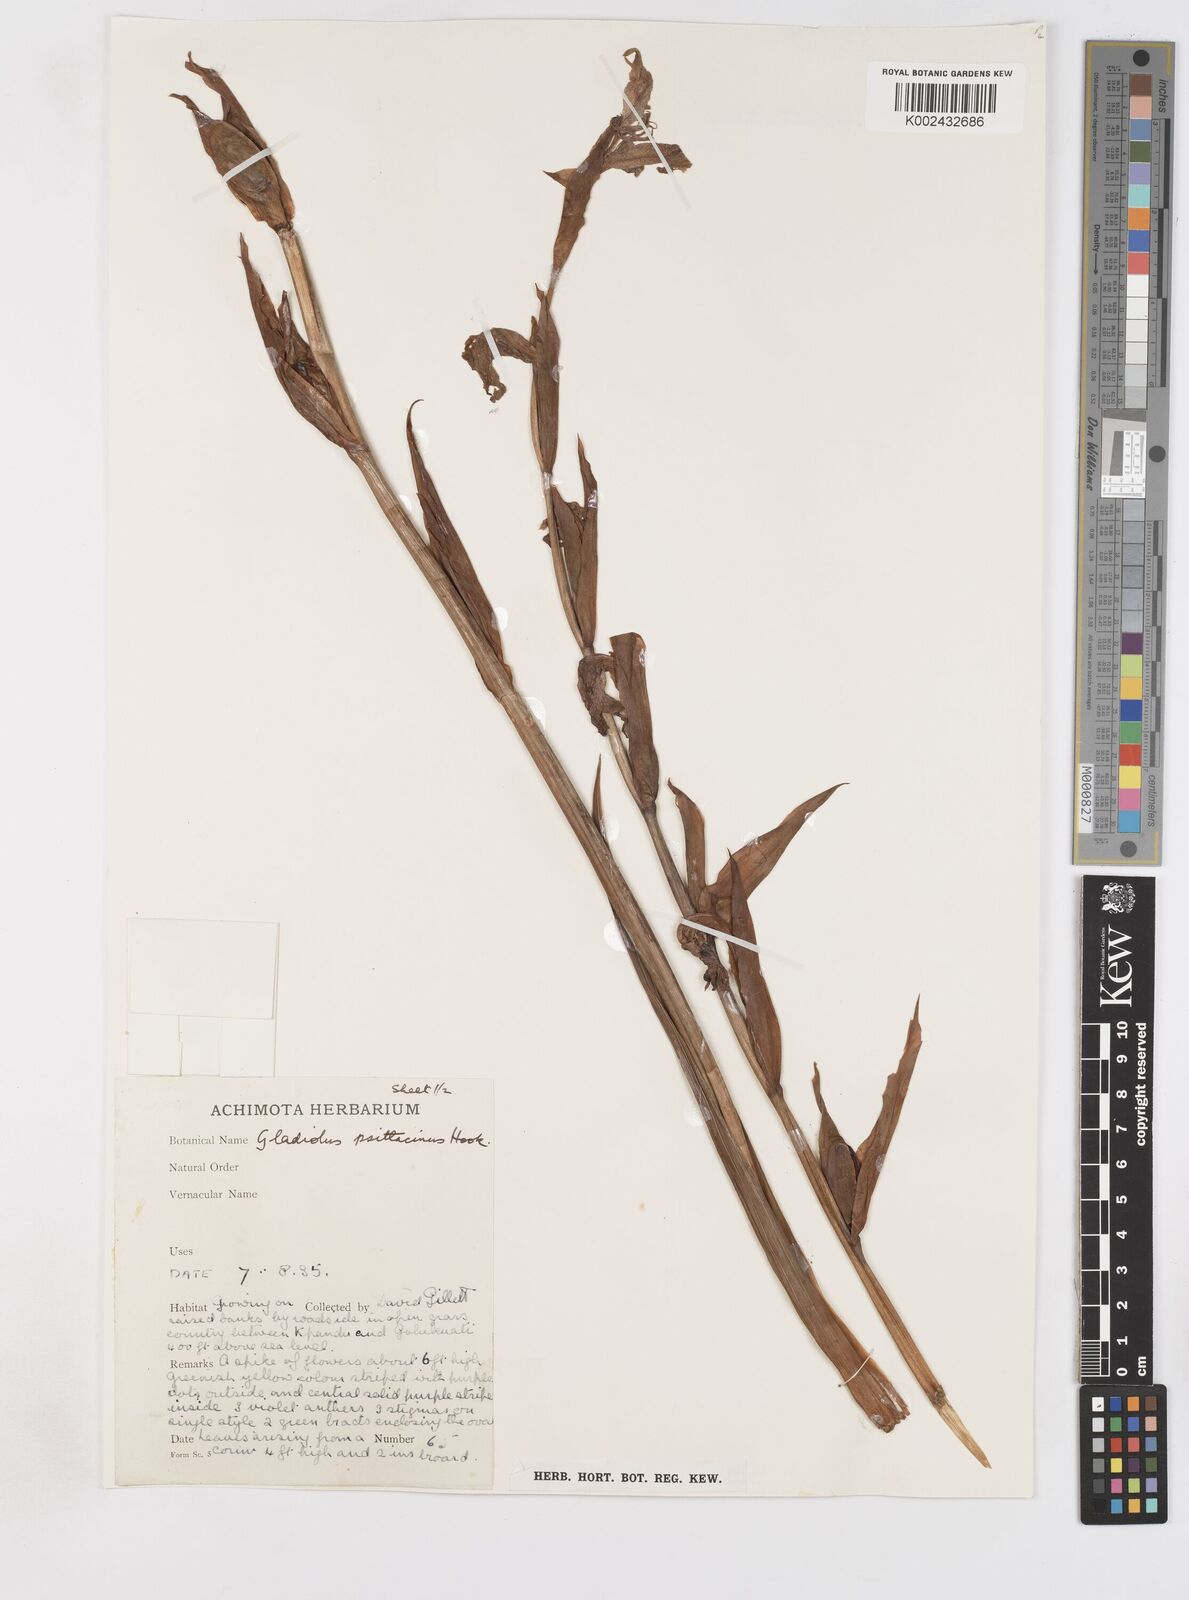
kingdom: Plantae
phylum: Tracheophyta
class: Liliopsida
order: Asparagales
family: Iridaceae
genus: Gladiolus
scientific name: Gladiolus dalenii
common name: Cornflag
